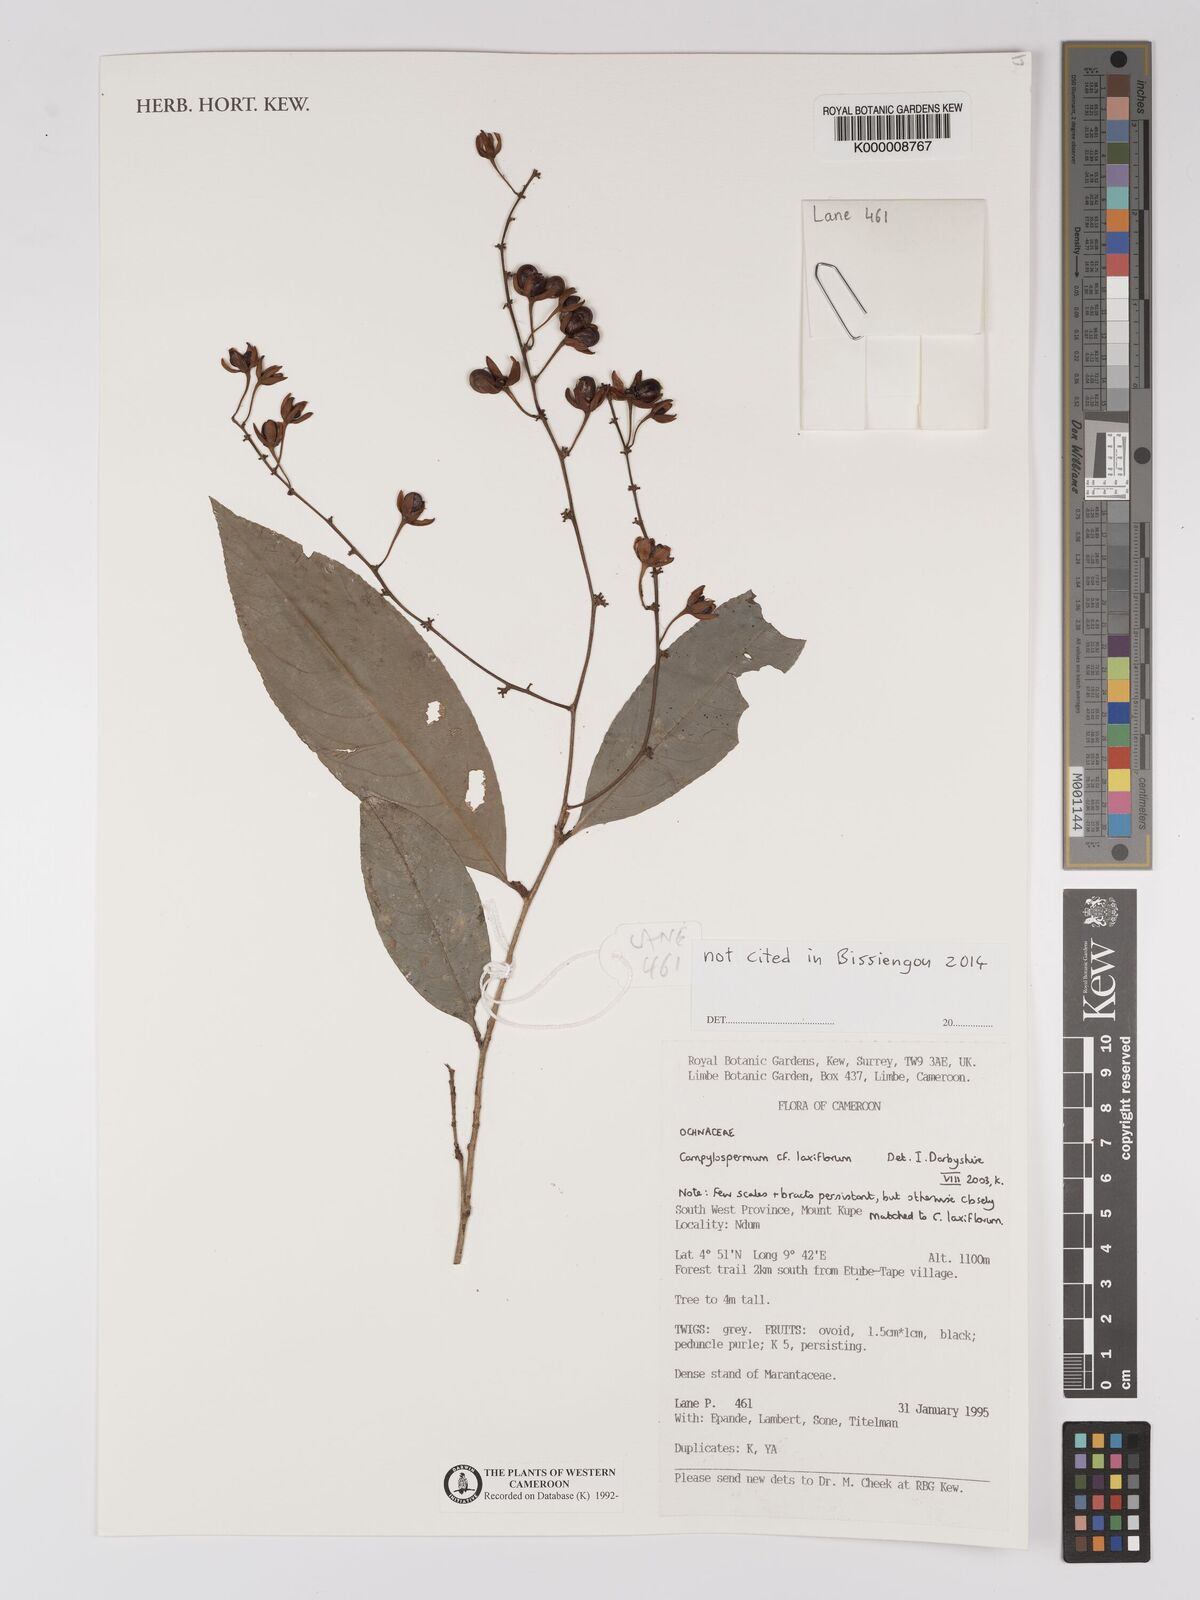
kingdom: Plantae
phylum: Tracheophyta
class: Magnoliopsida
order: Malpighiales
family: Ochnaceae
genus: Campylospermum
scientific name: Campylospermum laxiflorum
